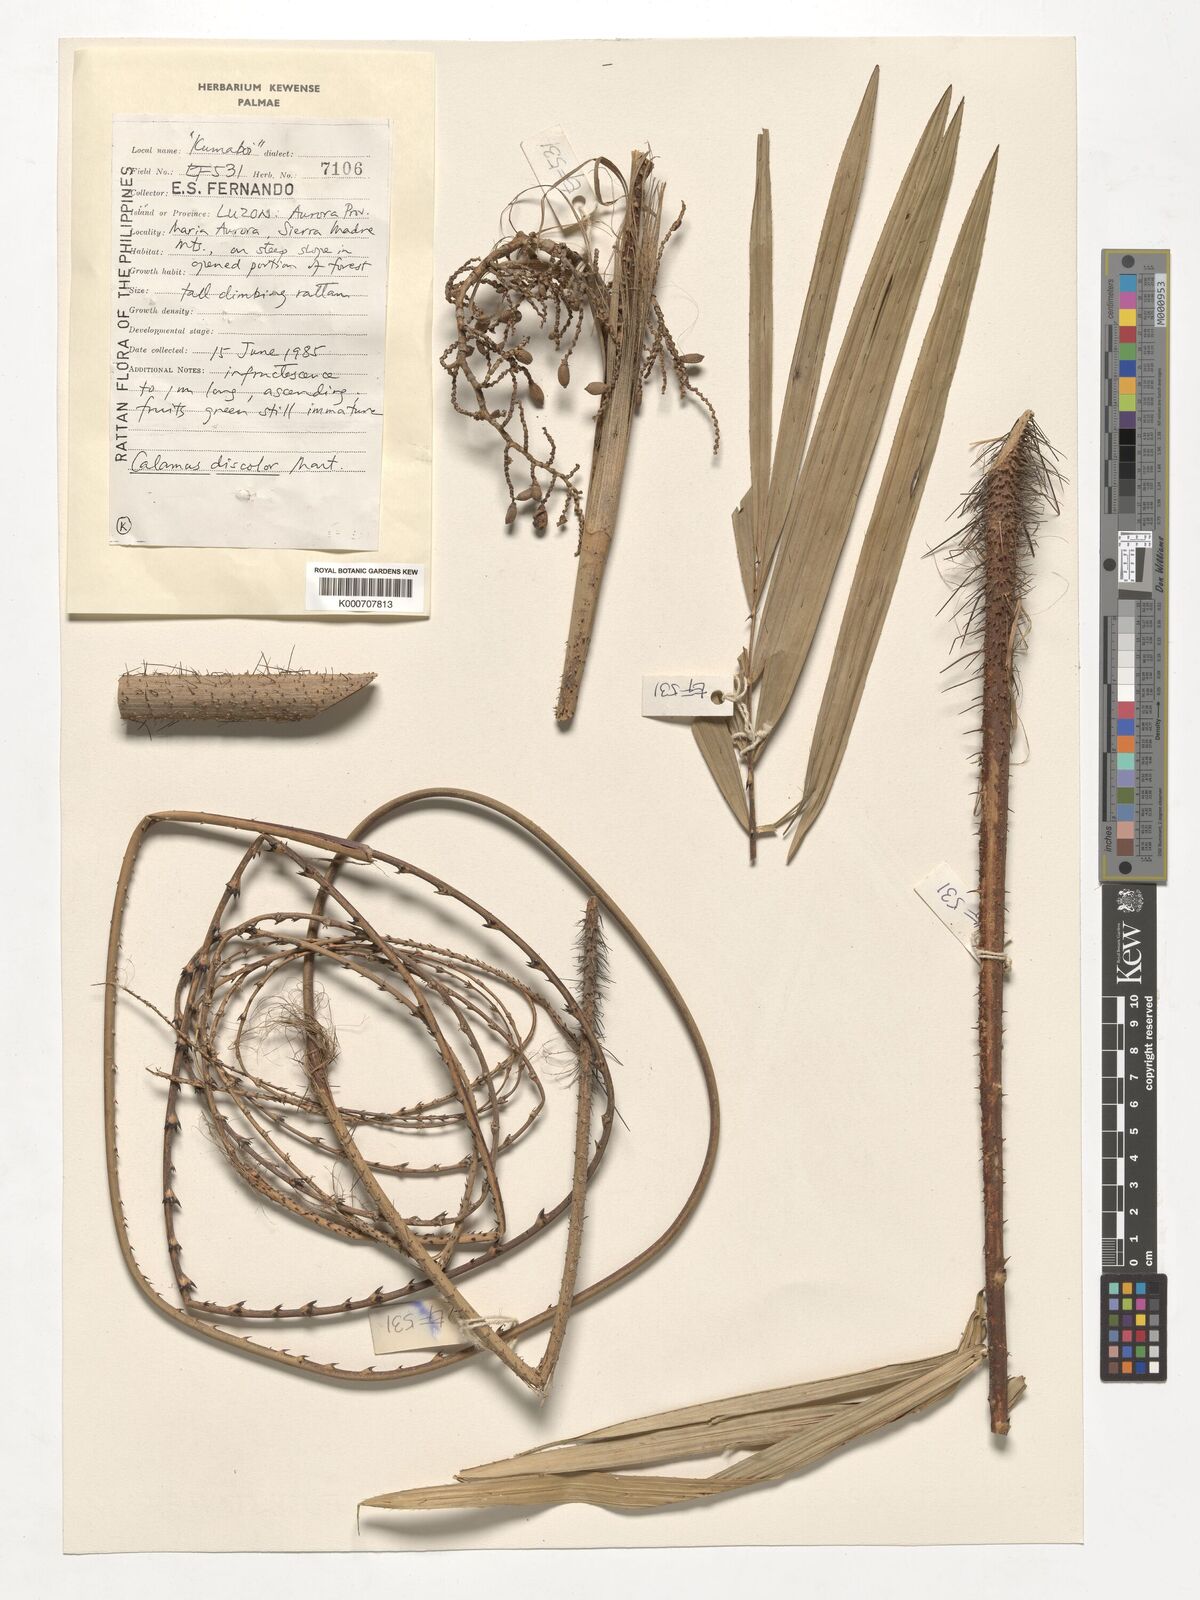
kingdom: Plantae
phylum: Tracheophyta
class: Liliopsida
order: Arecales
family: Arecaceae
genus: Calamus
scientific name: Calamus discolor
